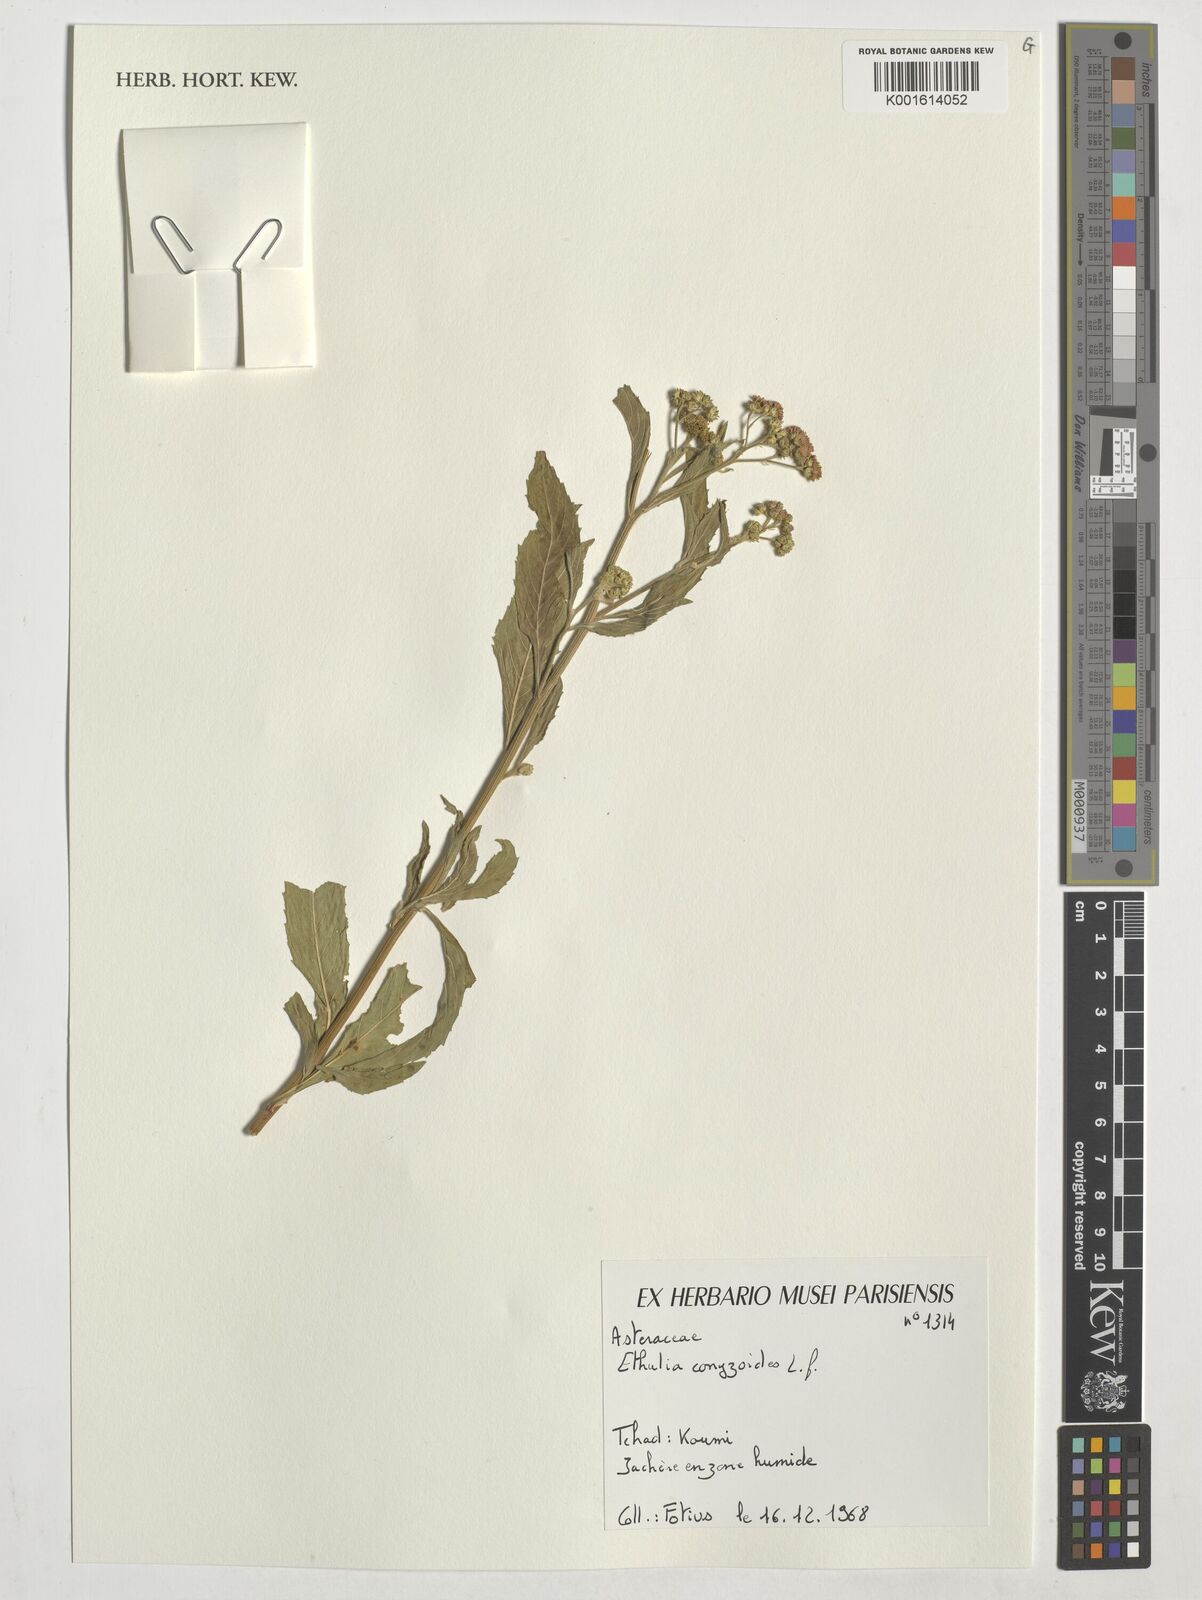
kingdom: Plantae
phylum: Tracheophyta
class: Magnoliopsida
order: Asterales
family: Asteraceae
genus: Ethulia
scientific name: Ethulia conyzoides
